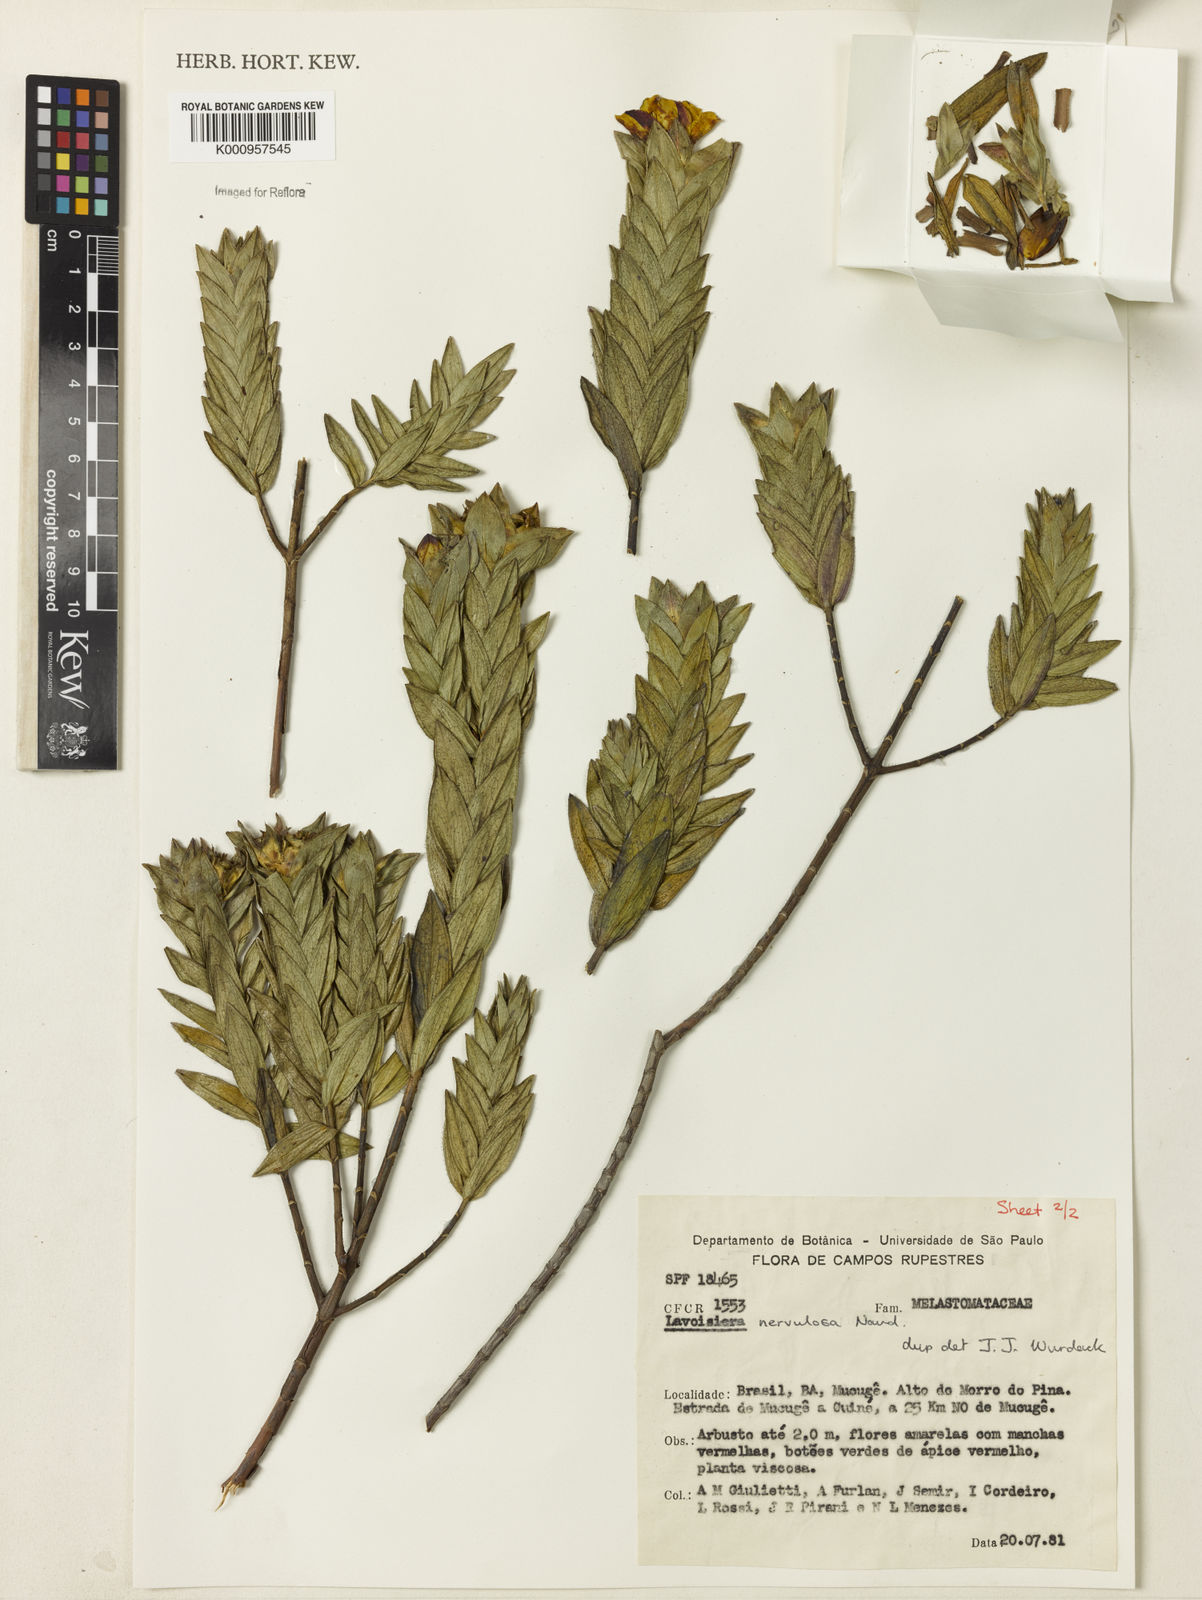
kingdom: Plantae
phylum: Tracheophyta
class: Magnoliopsida
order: Myrtales
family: Melastomataceae
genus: Microlicia
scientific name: Microlicia nervulosa
